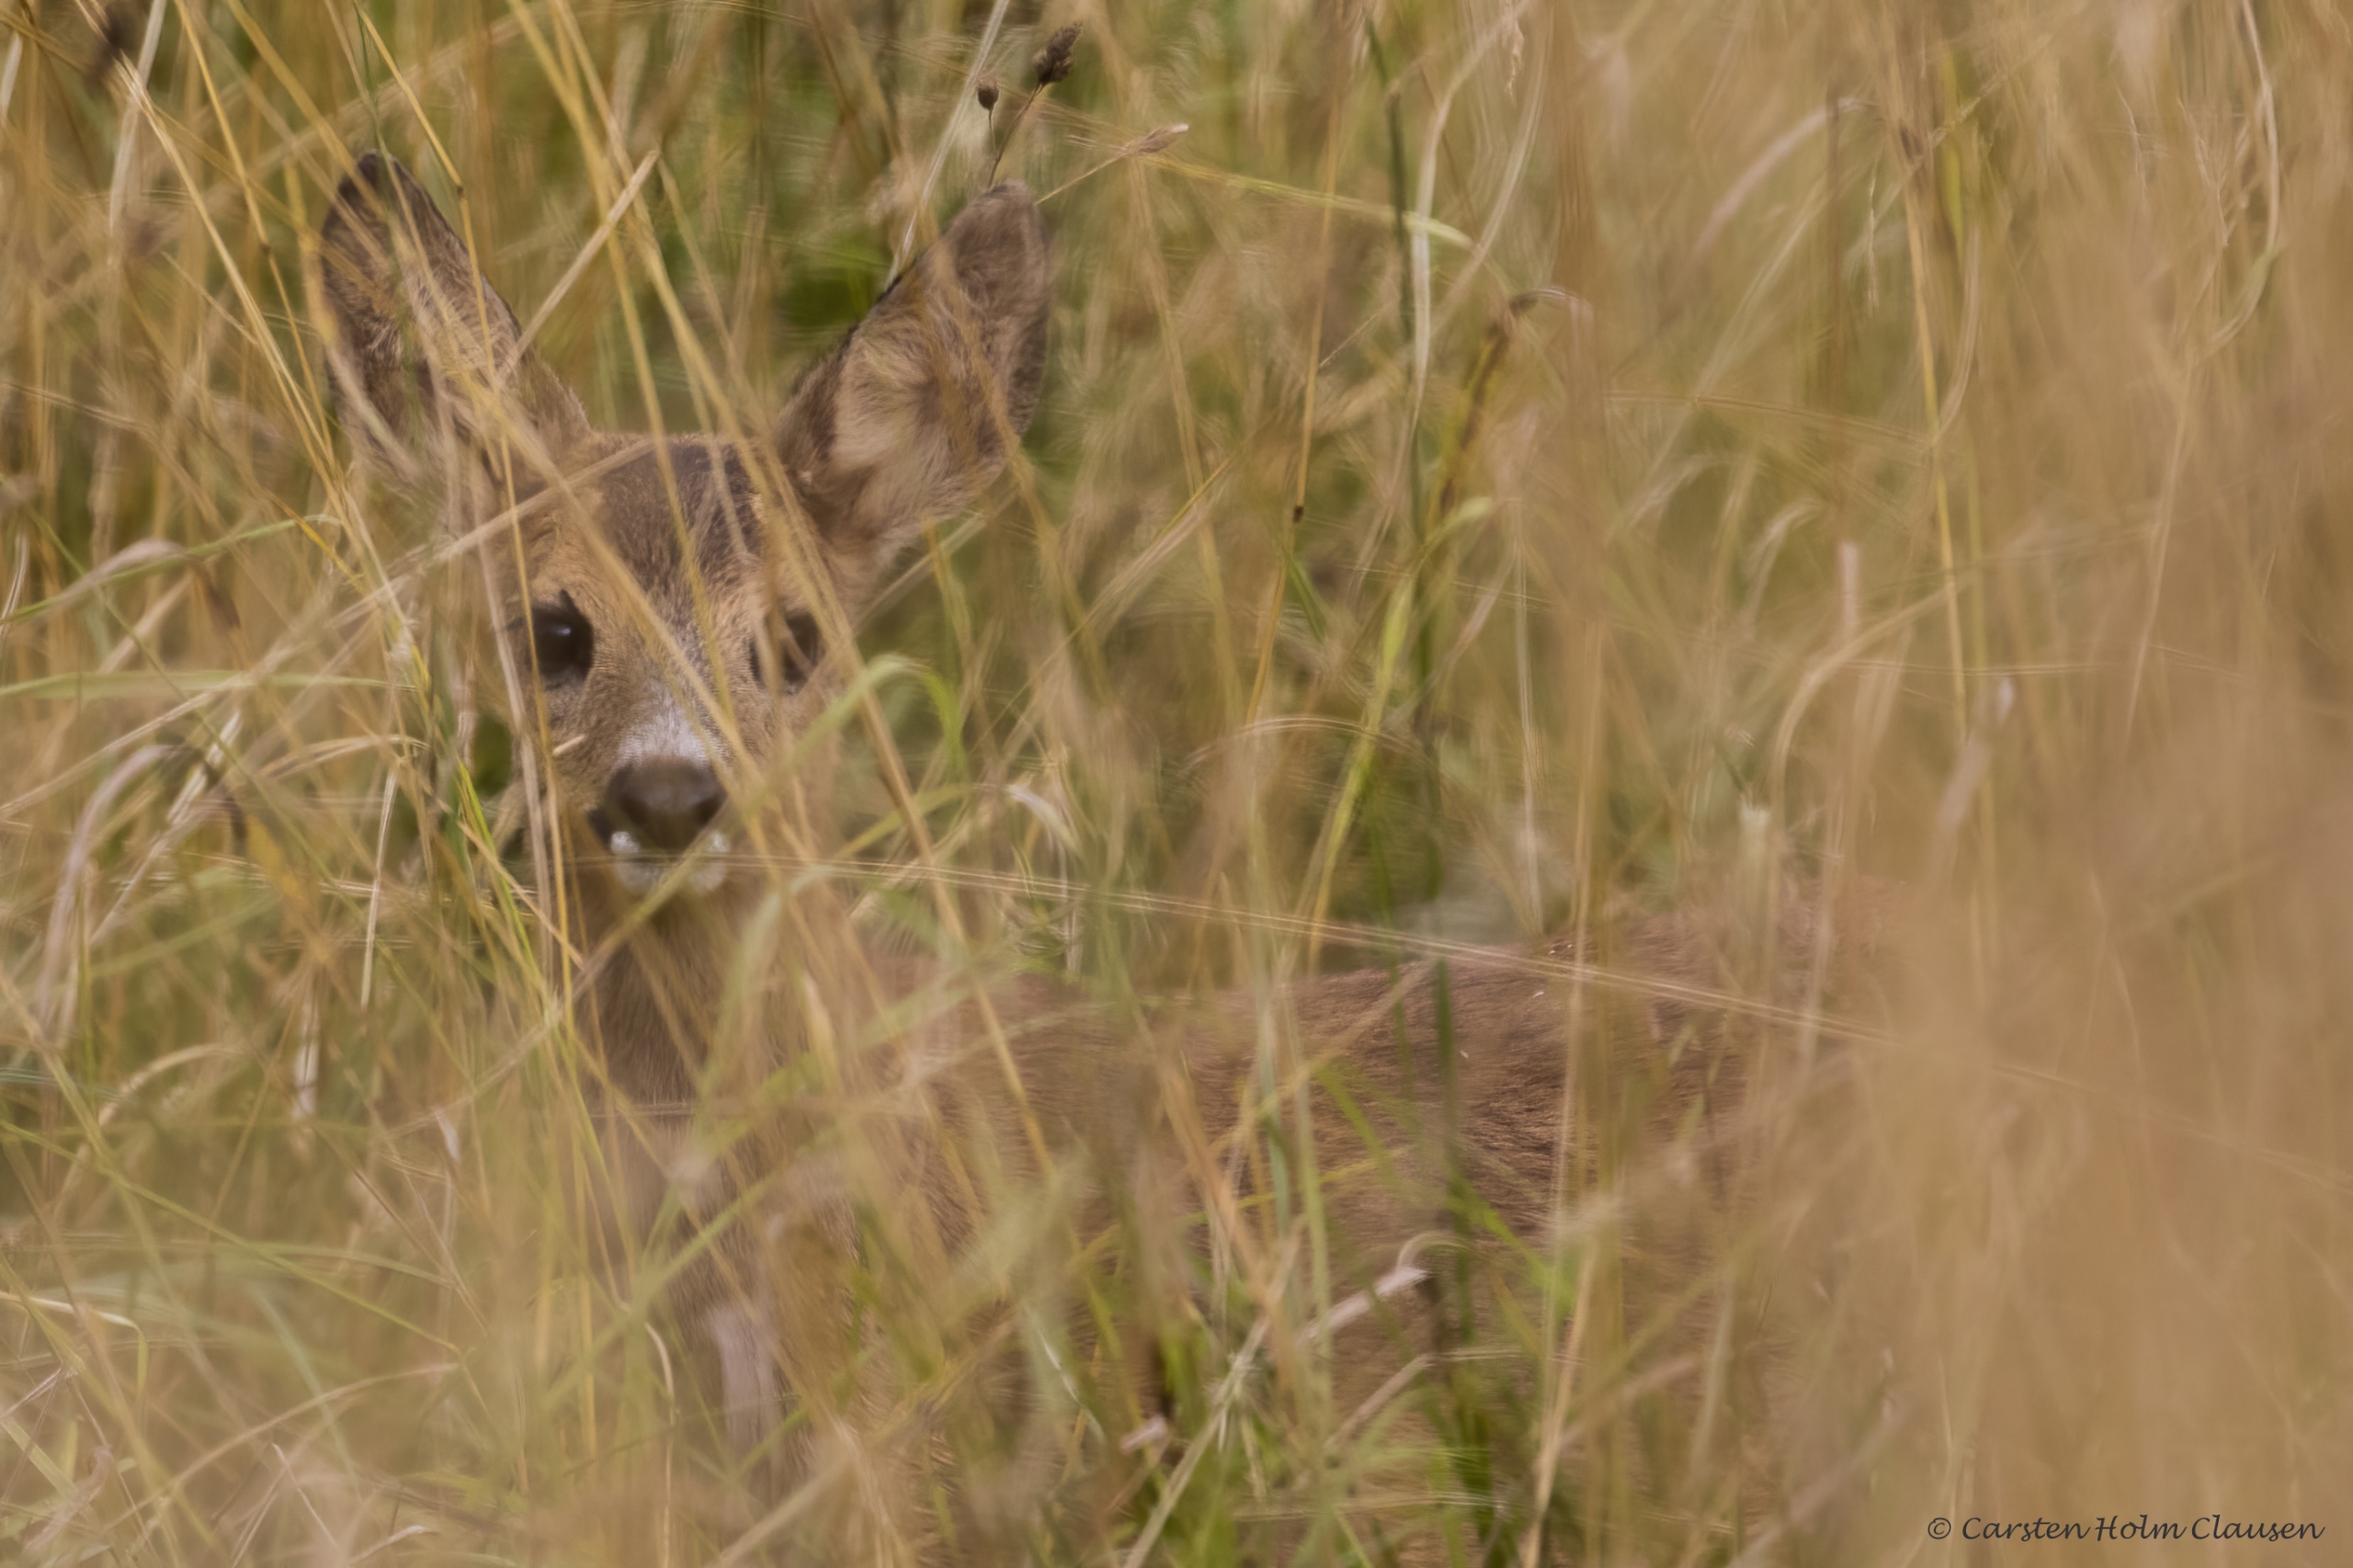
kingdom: Animalia
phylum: Chordata
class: Mammalia
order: Artiodactyla
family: Cervidae
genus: Capreolus
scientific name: Capreolus capreolus
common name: Rådyr
